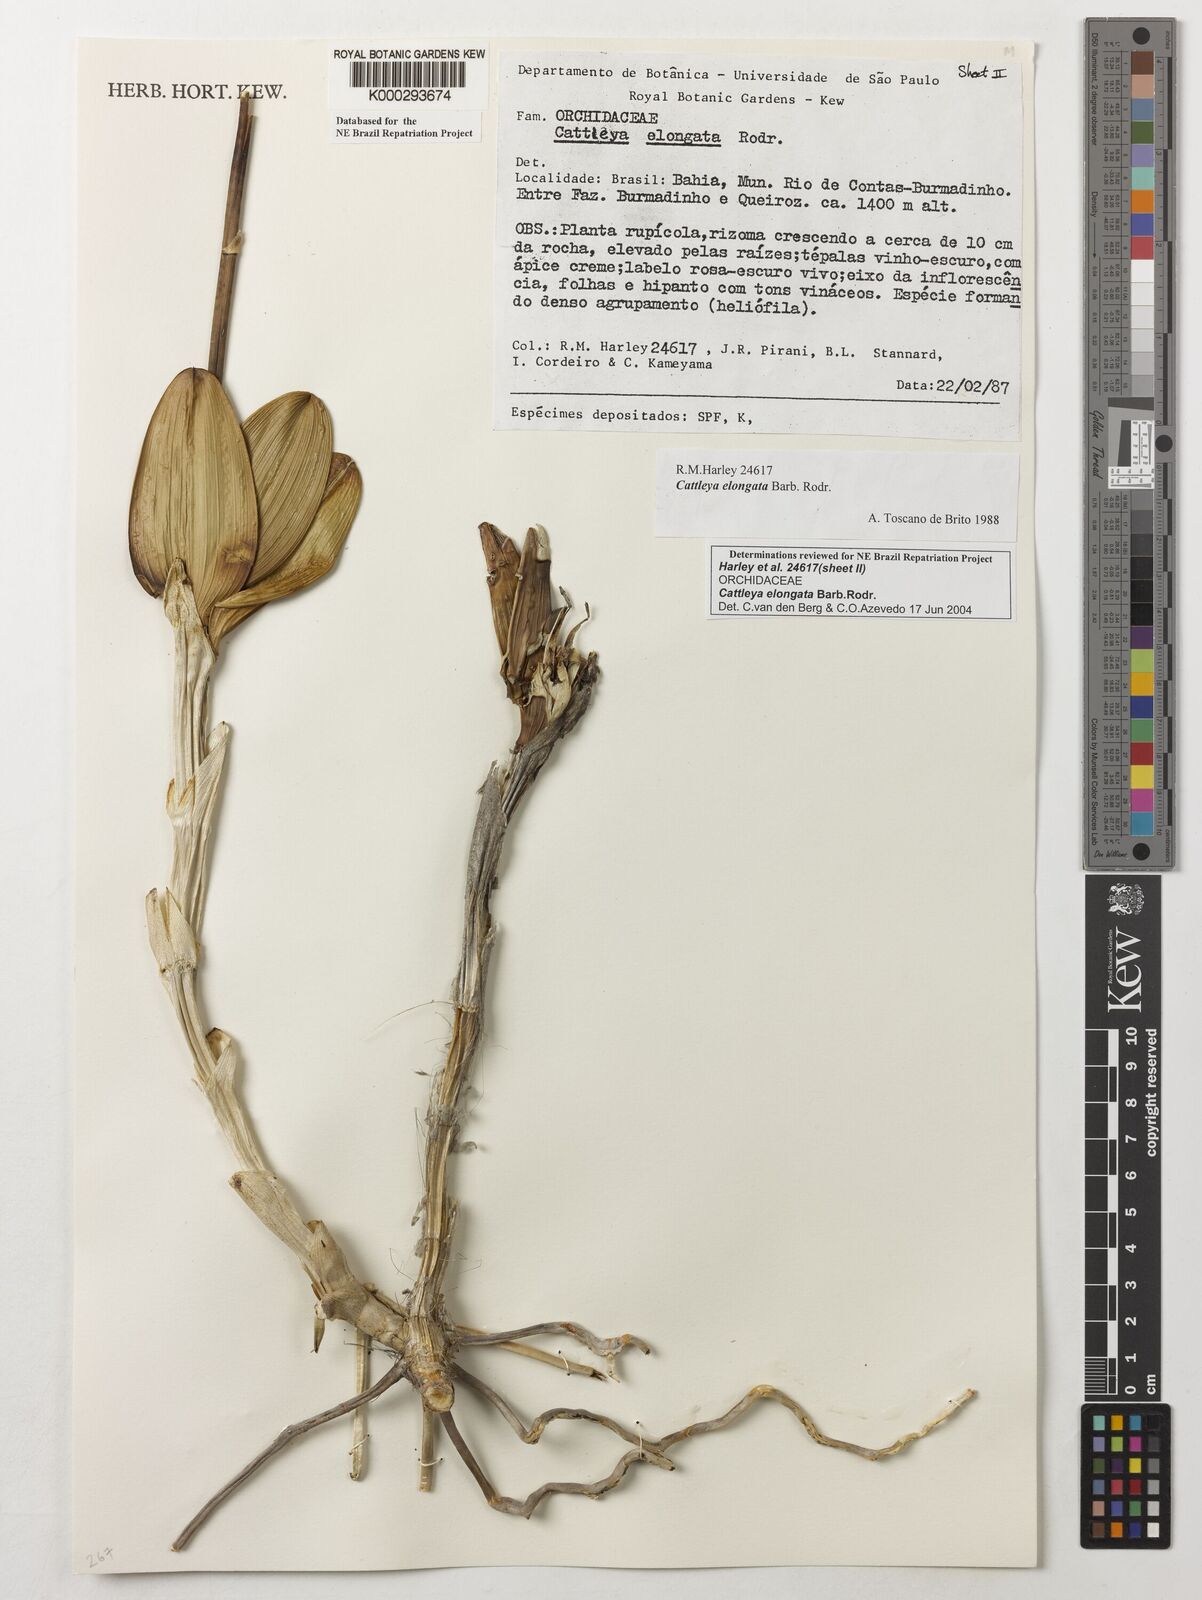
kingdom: Plantae
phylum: Tracheophyta
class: Liliopsida
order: Asparagales
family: Orchidaceae
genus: Cattleya
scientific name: Cattleya elongata
